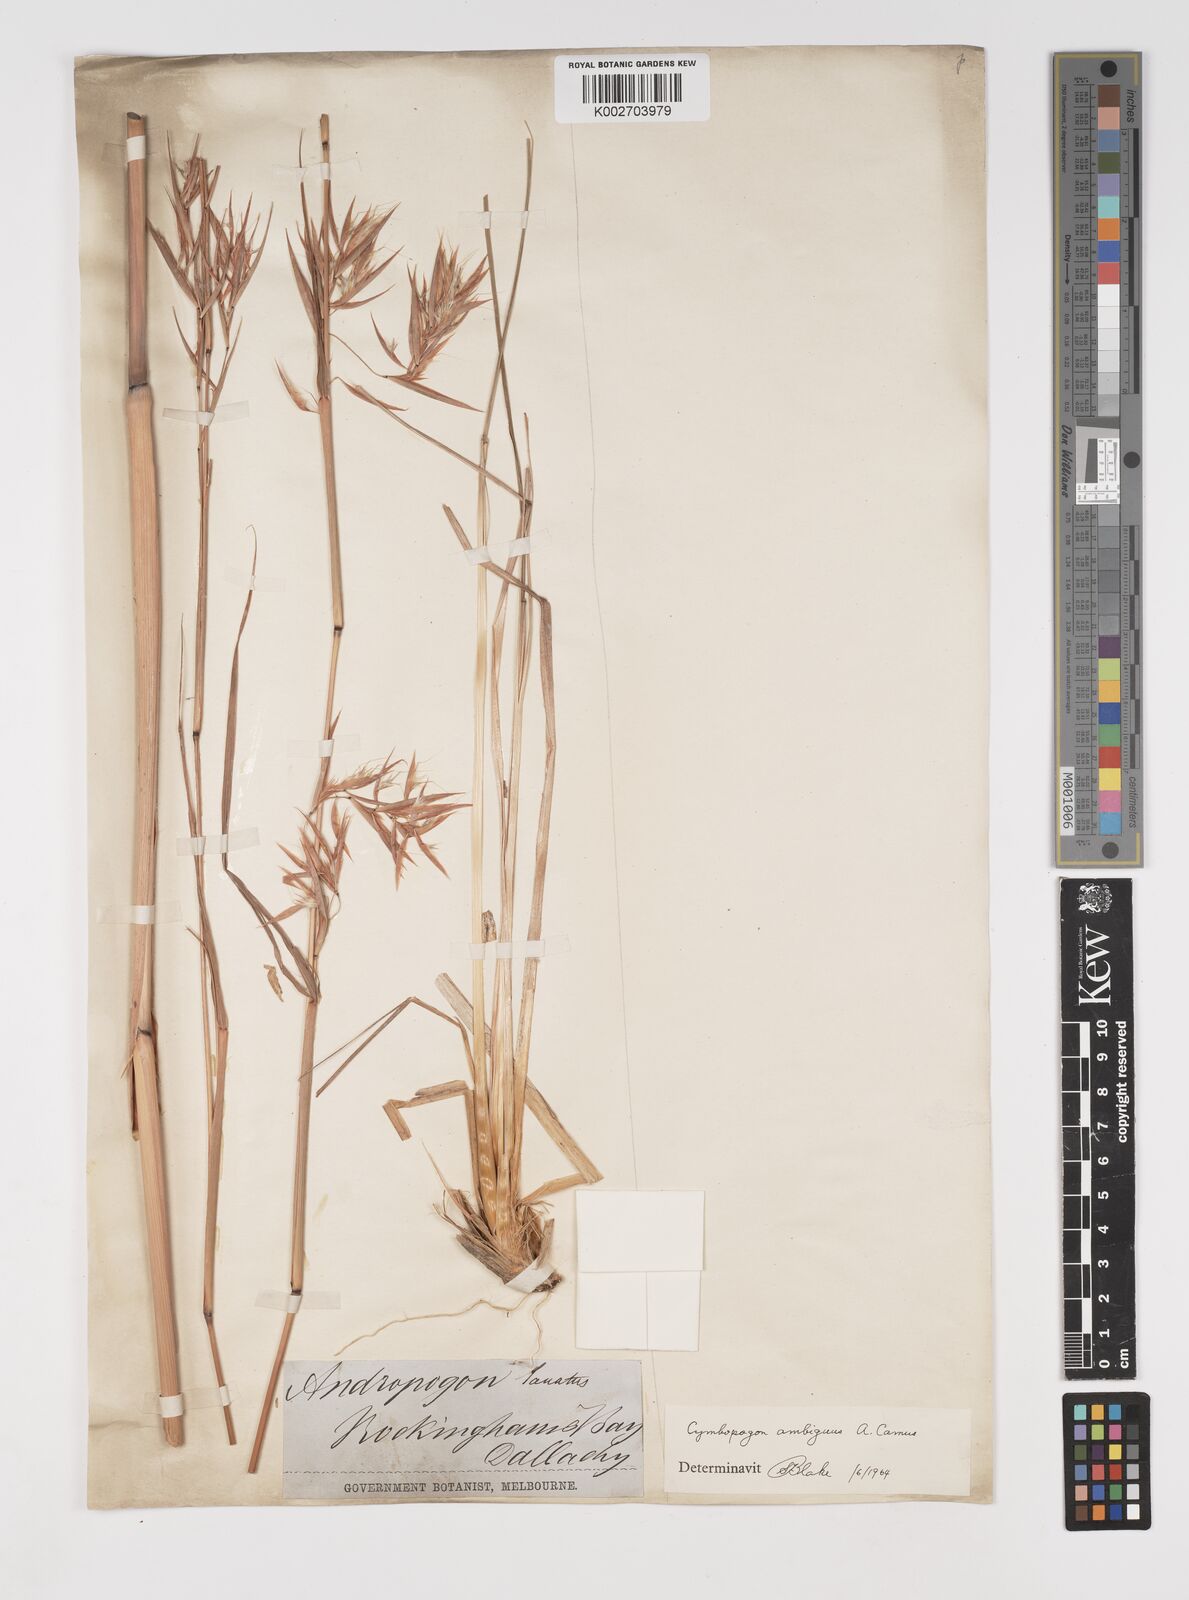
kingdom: Plantae
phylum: Tracheophyta
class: Liliopsida
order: Poales
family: Poaceae
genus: Cymbopogon
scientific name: Cymbopogon ambiguus
